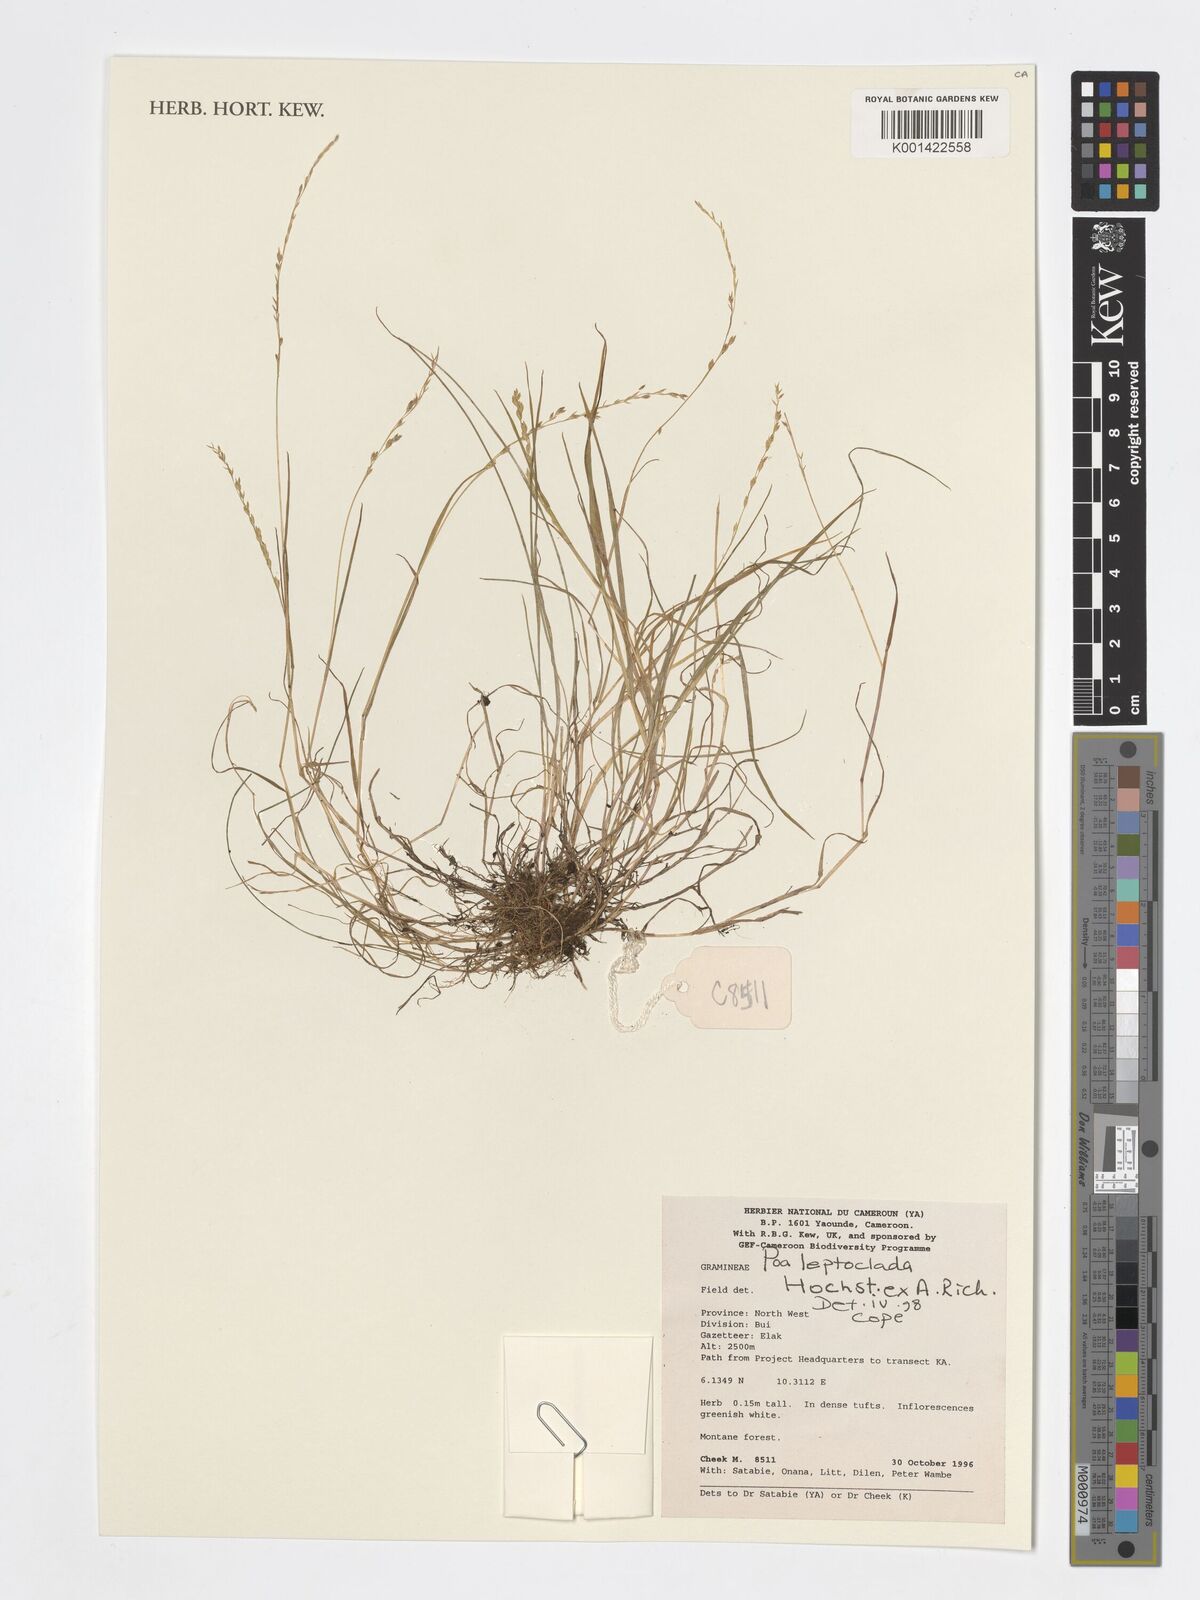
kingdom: Plantae
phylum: Tracheophyta
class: Liliopsida
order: Poales
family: Poaceae
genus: Poa
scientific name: Poa leptoclada
